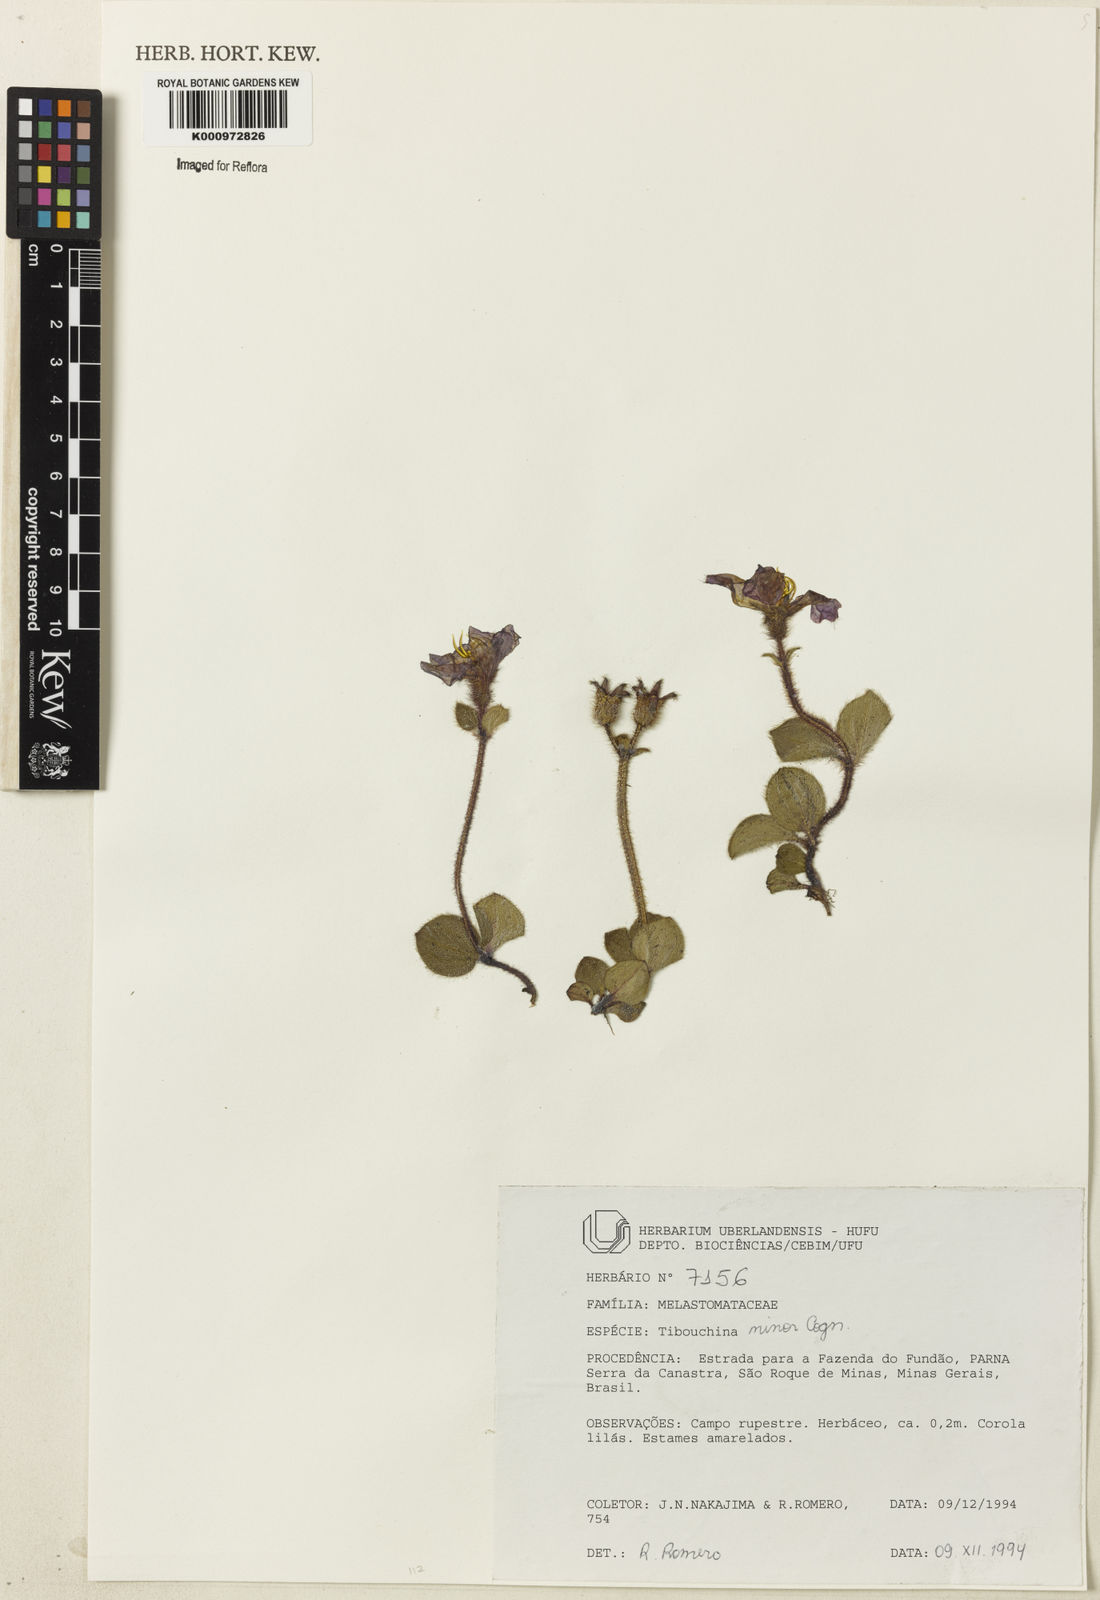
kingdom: Plantae
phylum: Tracheophyta
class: Magnoliopsida
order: Myrtales
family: Melastomataceae
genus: Chaetogastra
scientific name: Chaetogastra minor
